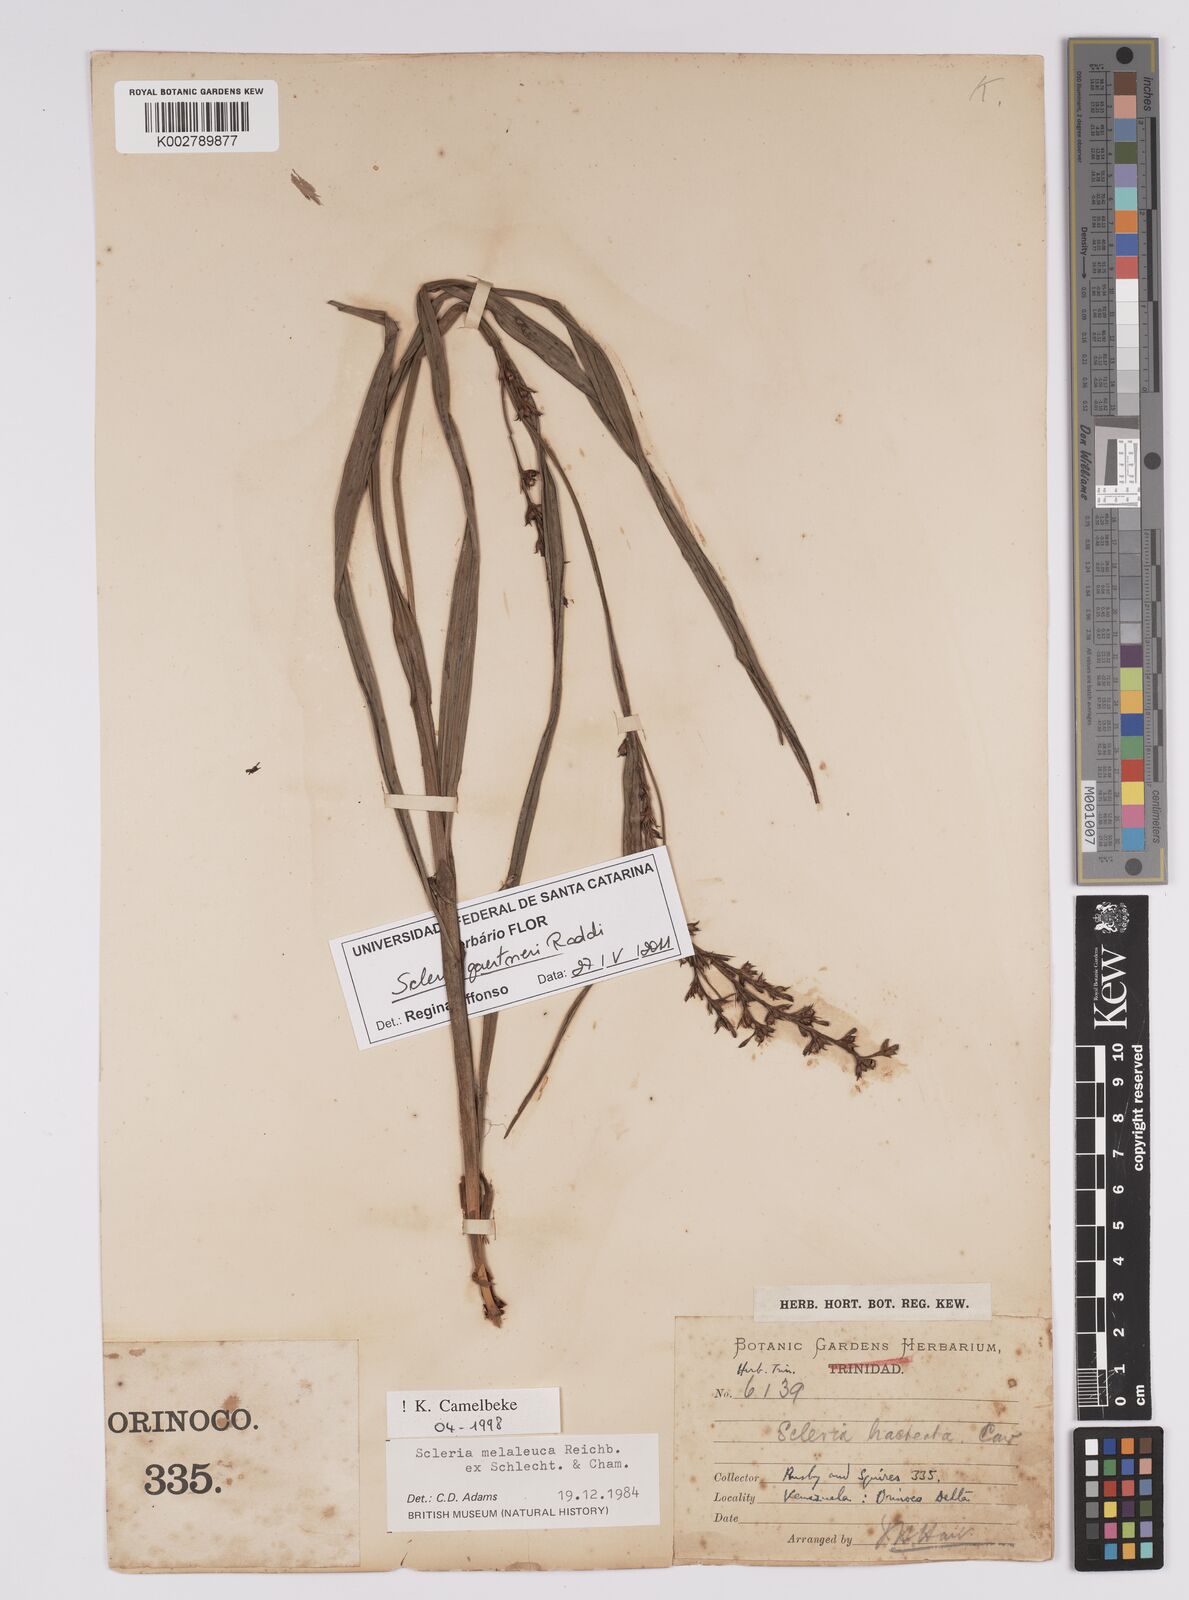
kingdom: Plantae
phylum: Tracheophyta
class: Liliopsida
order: Poales
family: Cyperaceae
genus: Scleria
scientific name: Scleria gaertneri
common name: Cortadera blanca
